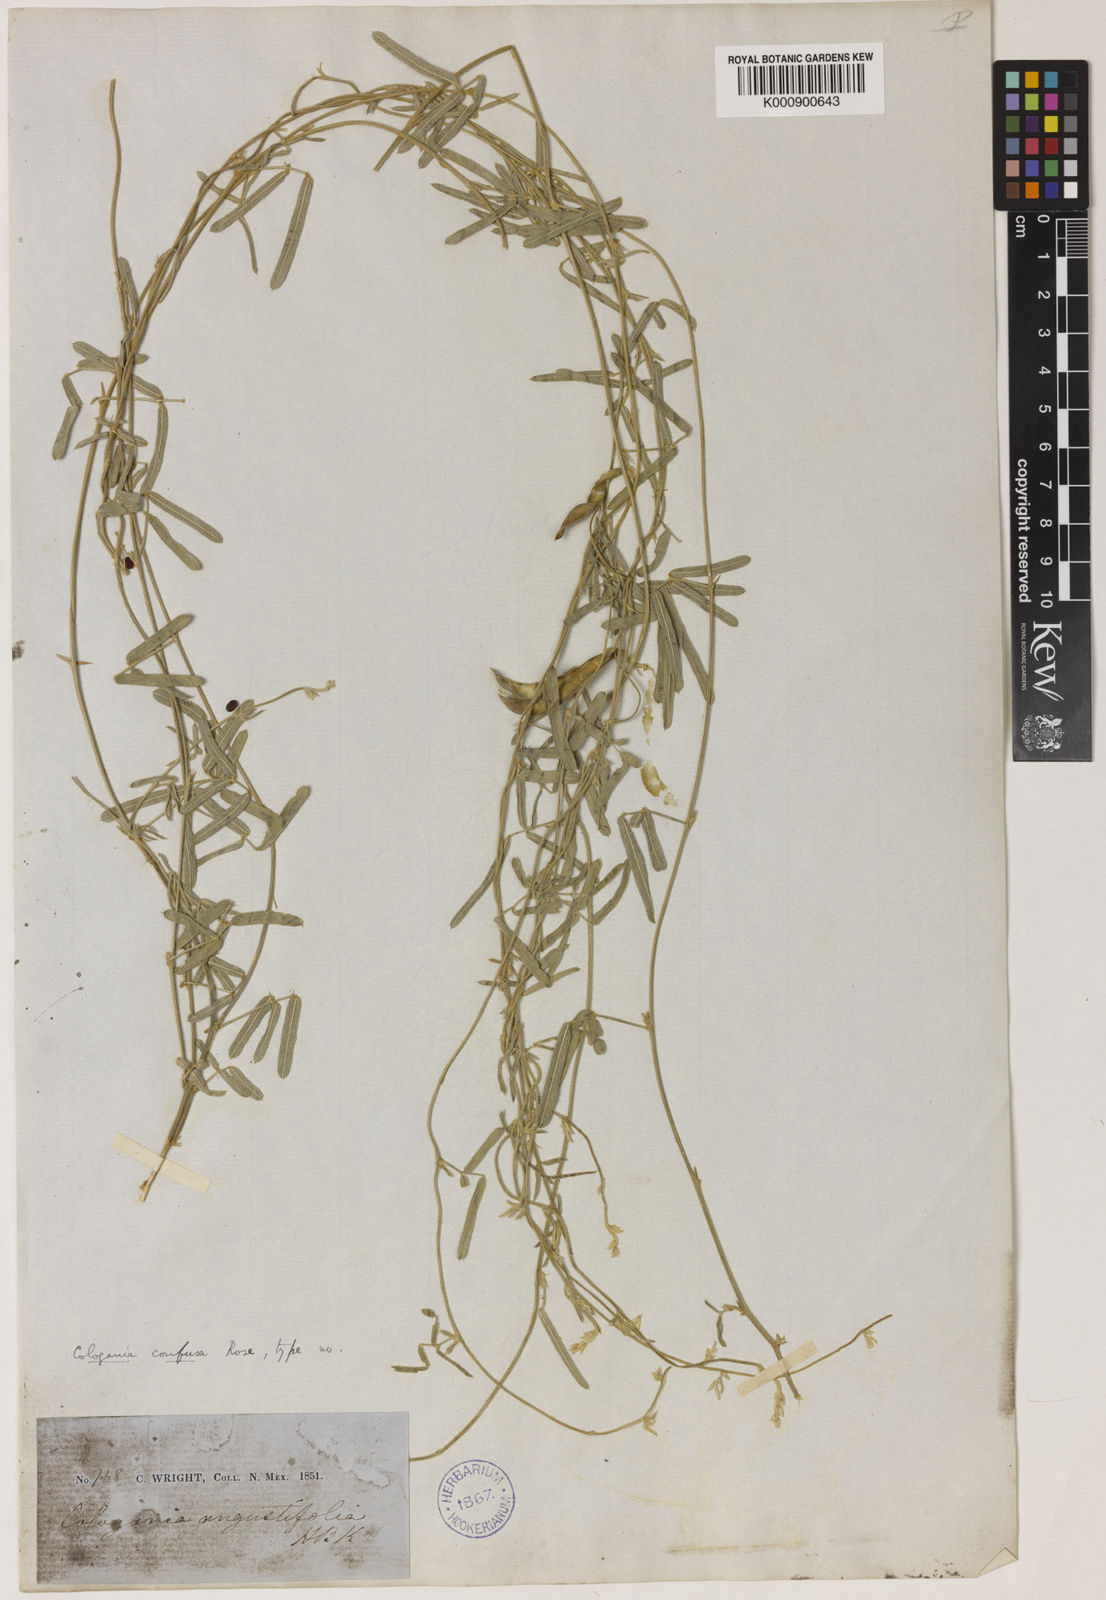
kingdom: Plantae
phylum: Tracheophyta
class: Magnoliopsida
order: Fabales
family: Fabaceae
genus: Cologania
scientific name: Cologania angustifolia
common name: Longleaf cologania
